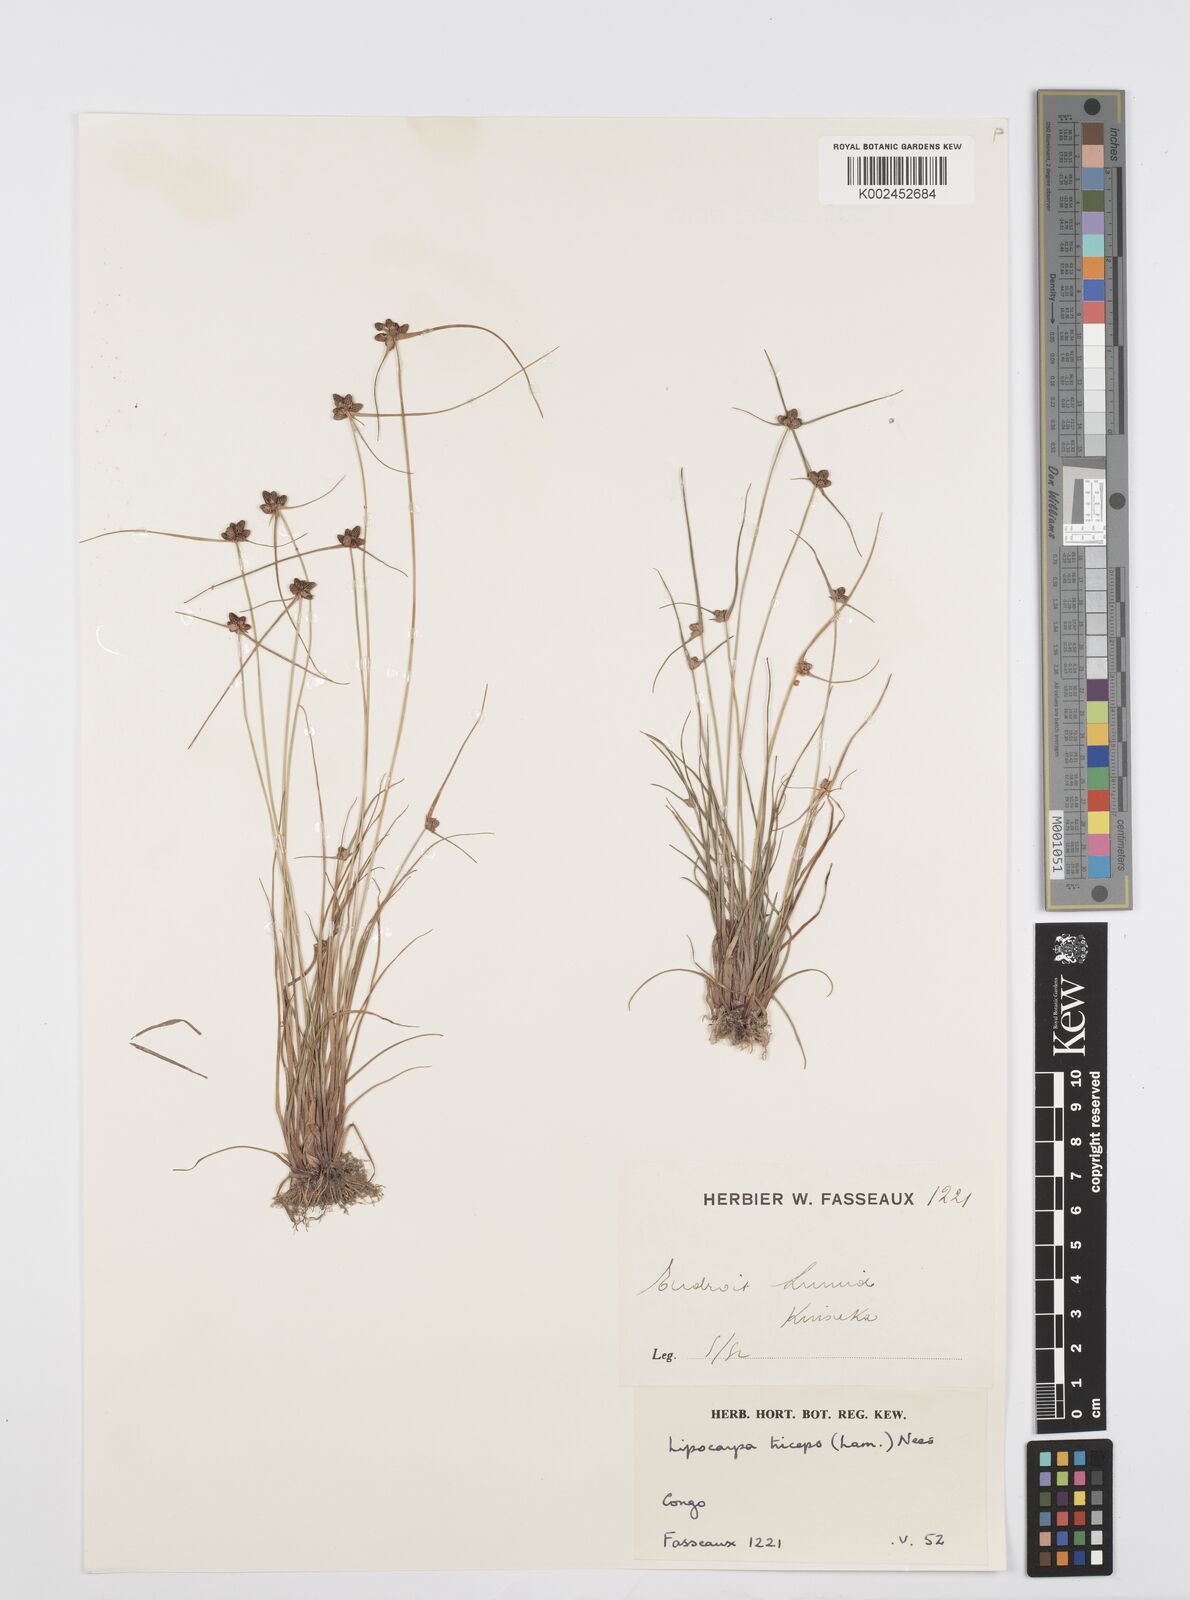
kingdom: Plantae
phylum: Tracheophyta
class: Liliopsida
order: Poales
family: Cyperaceae
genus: Cyperus
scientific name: Cyperus filiformis
